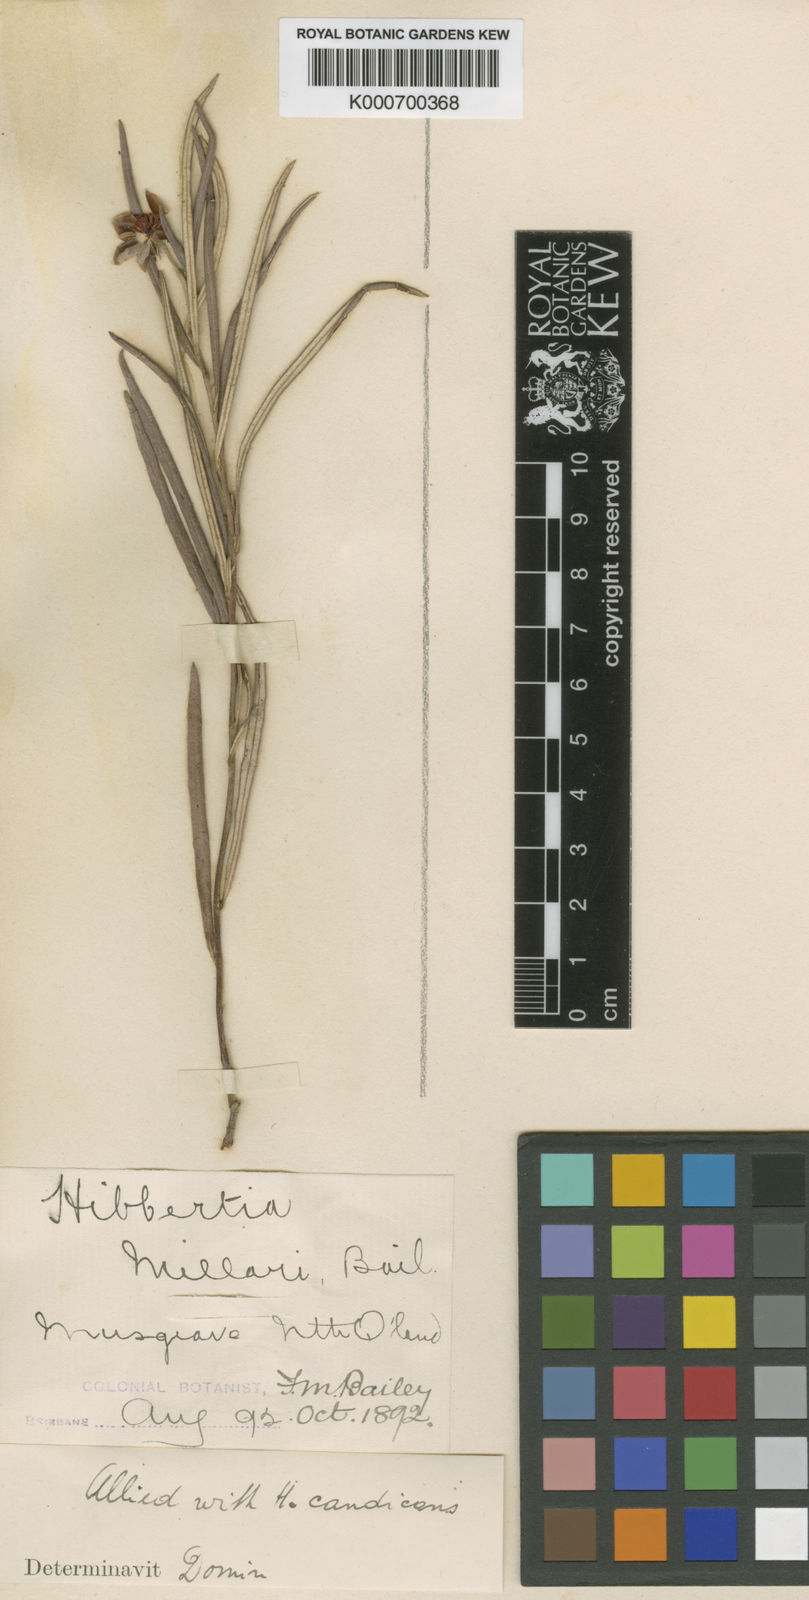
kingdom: Plantae
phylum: Tracheophyta
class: Magnoliopsida
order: Dilleniales
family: Dilleniaceae
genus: Hibbertia
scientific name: Hibbertia millarii
